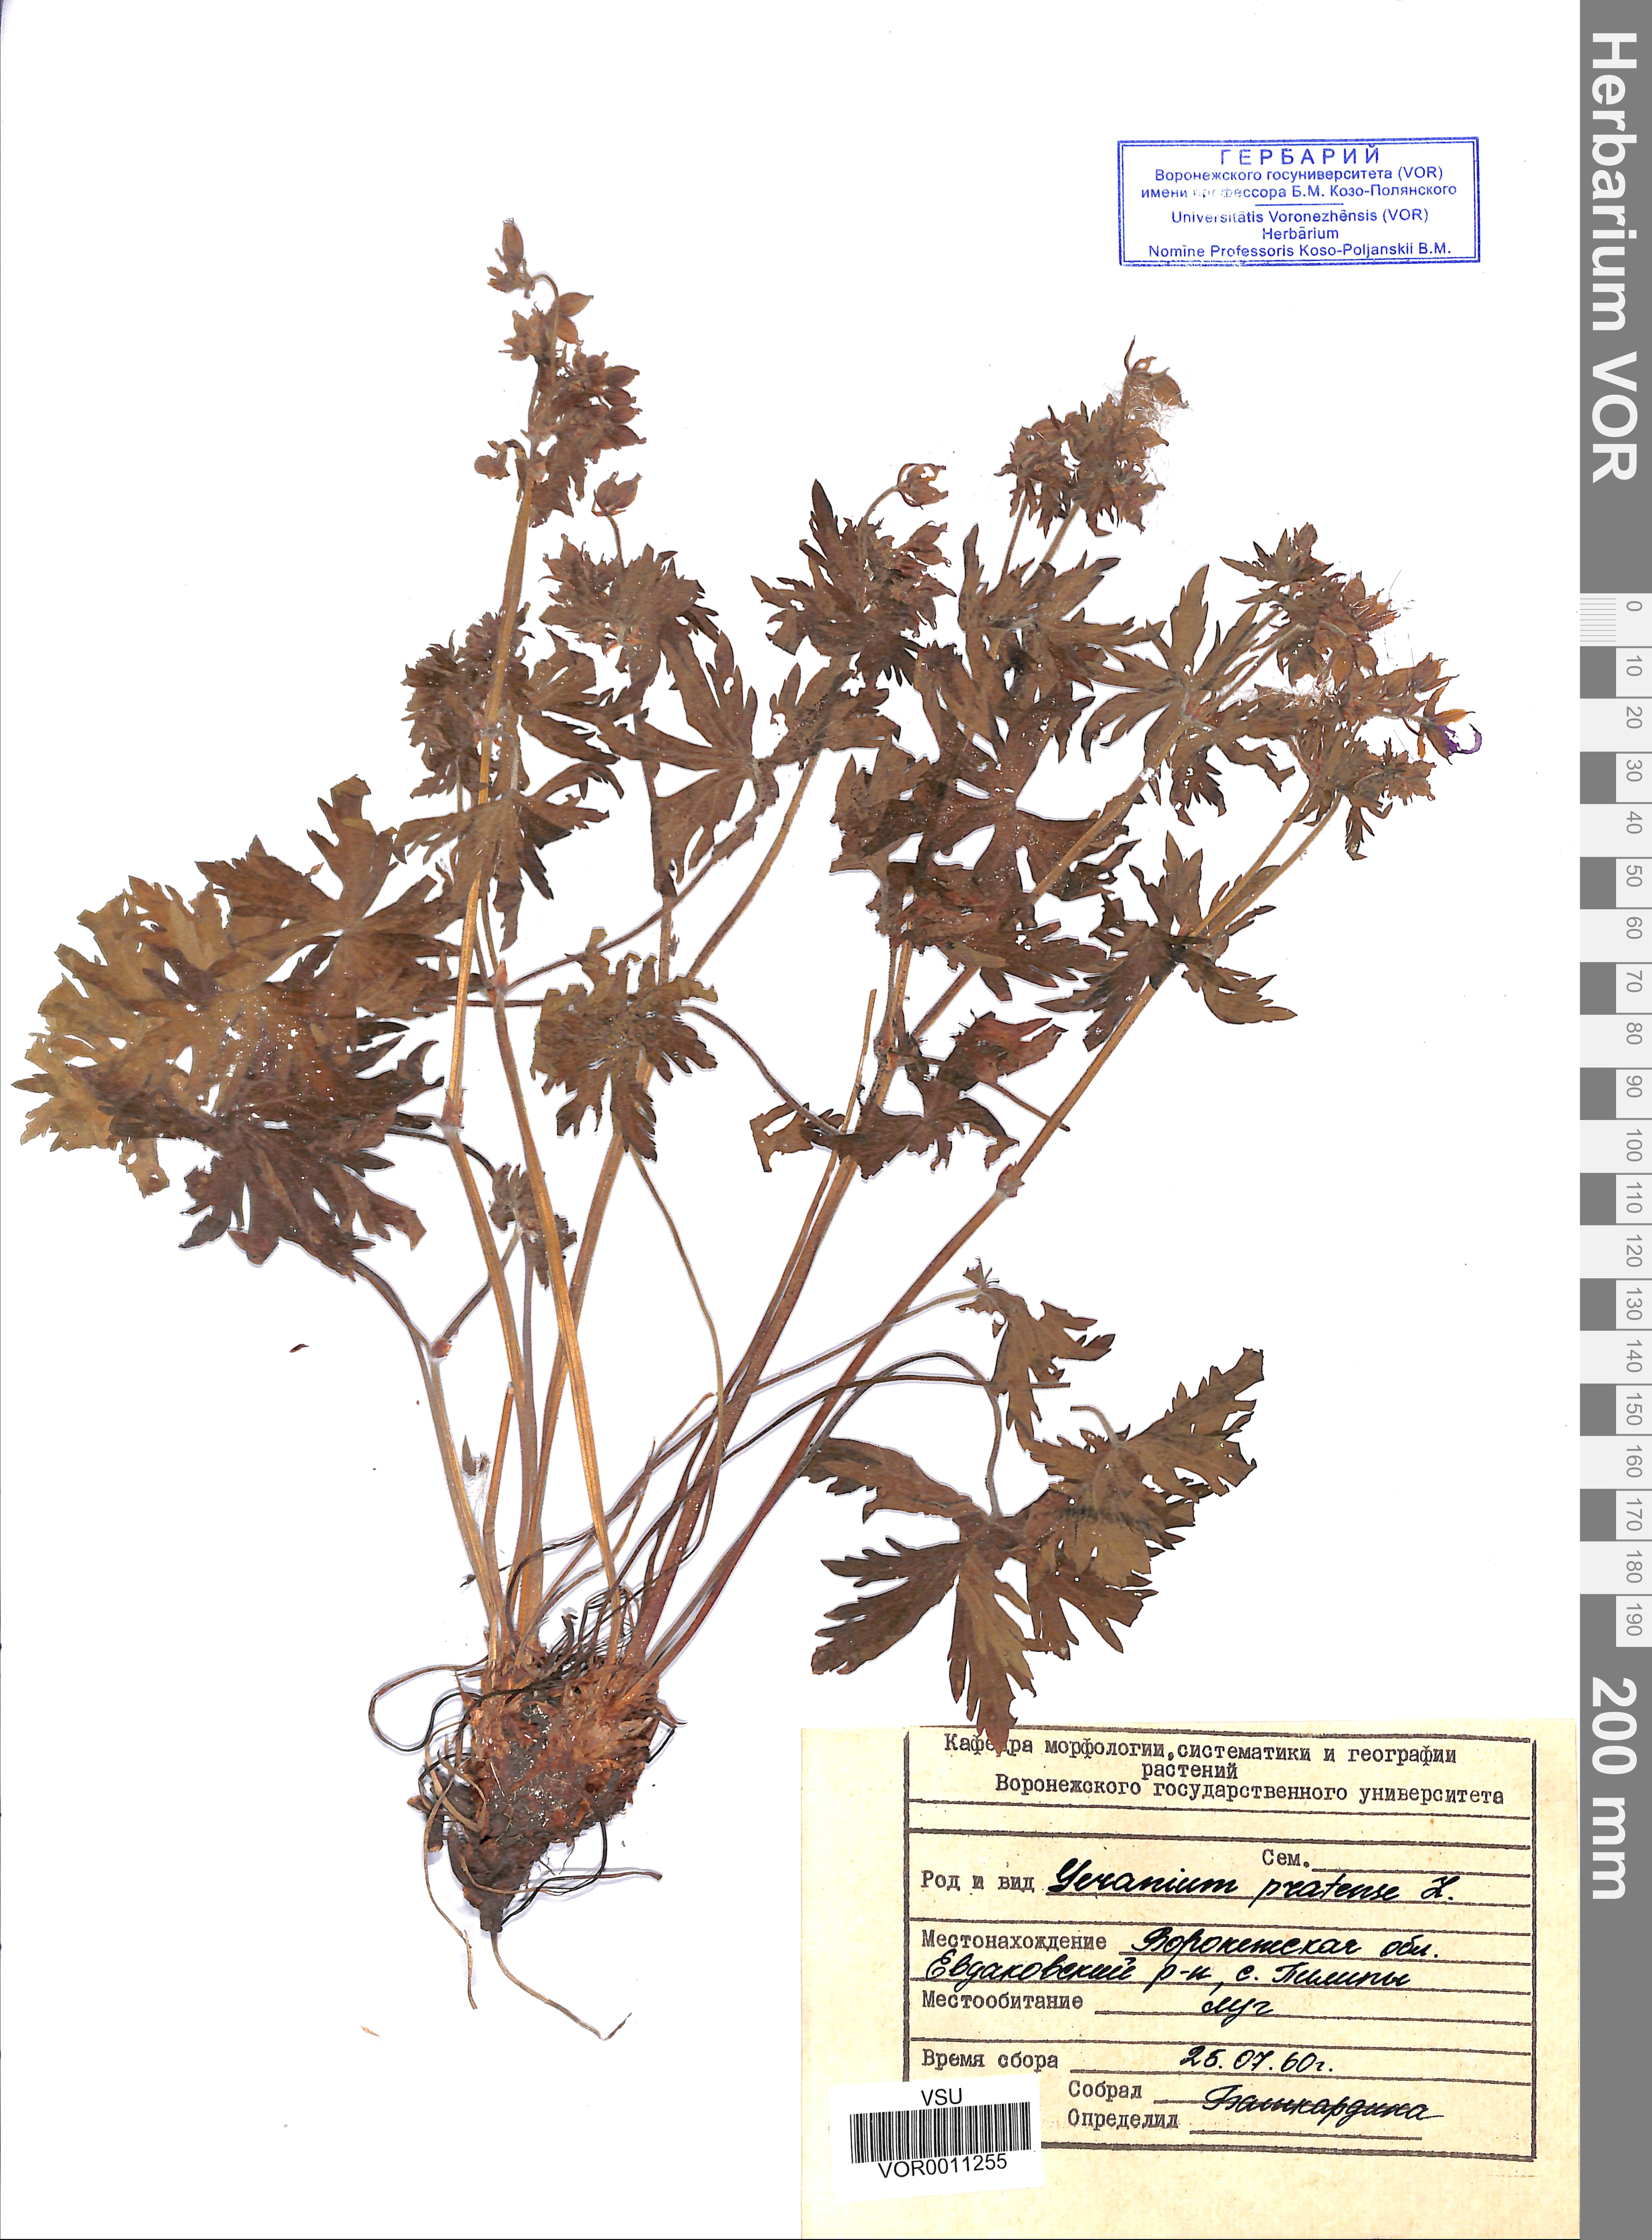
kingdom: Plantae
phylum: Tracheophyta
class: Magnoliopsida
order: Geraniales
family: Geraniaceae
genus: Geranium
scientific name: Geranium pratense
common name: Meadow crane's-bill
